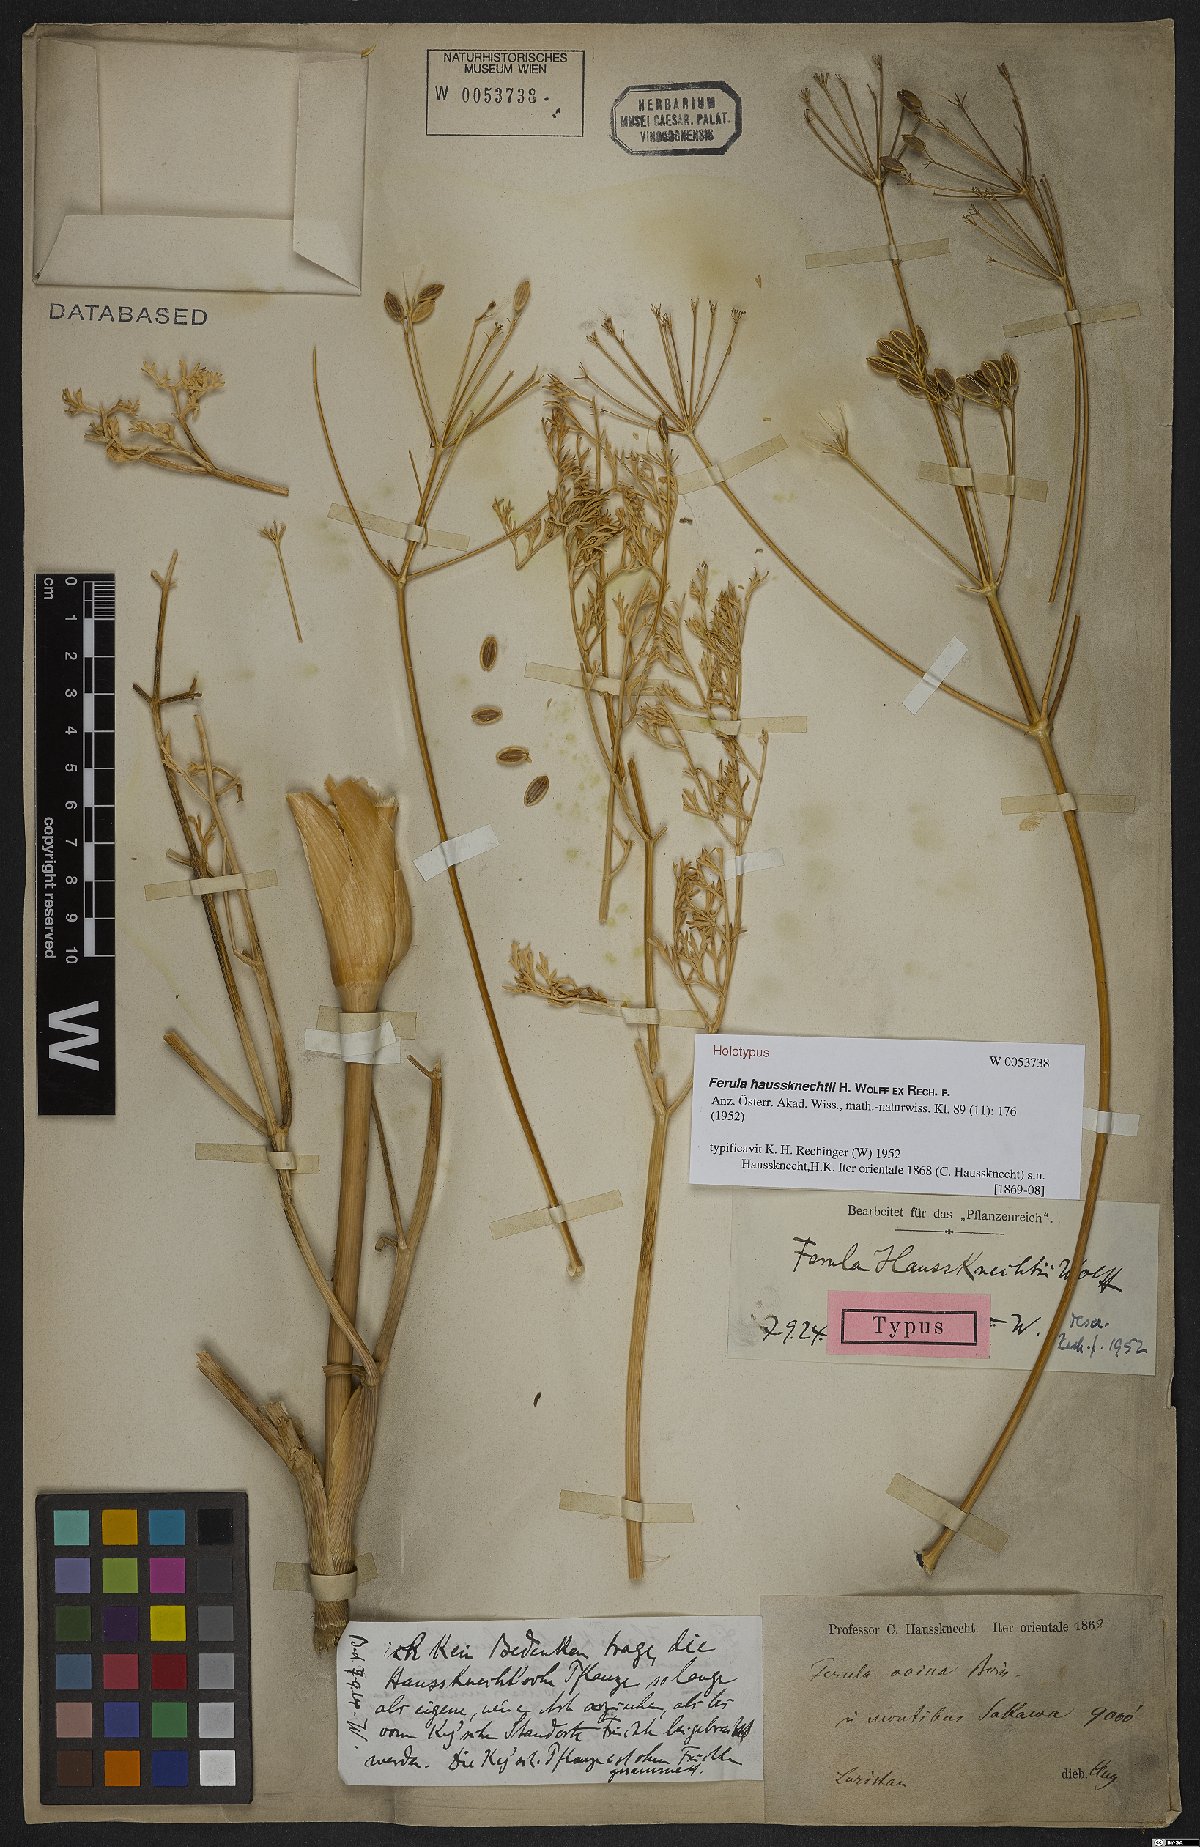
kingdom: Plantae
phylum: Tracheophyta
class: Magnoliopsida
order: Apiales
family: Apiaceae
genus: Ferula
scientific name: Ferula haussknechtii
